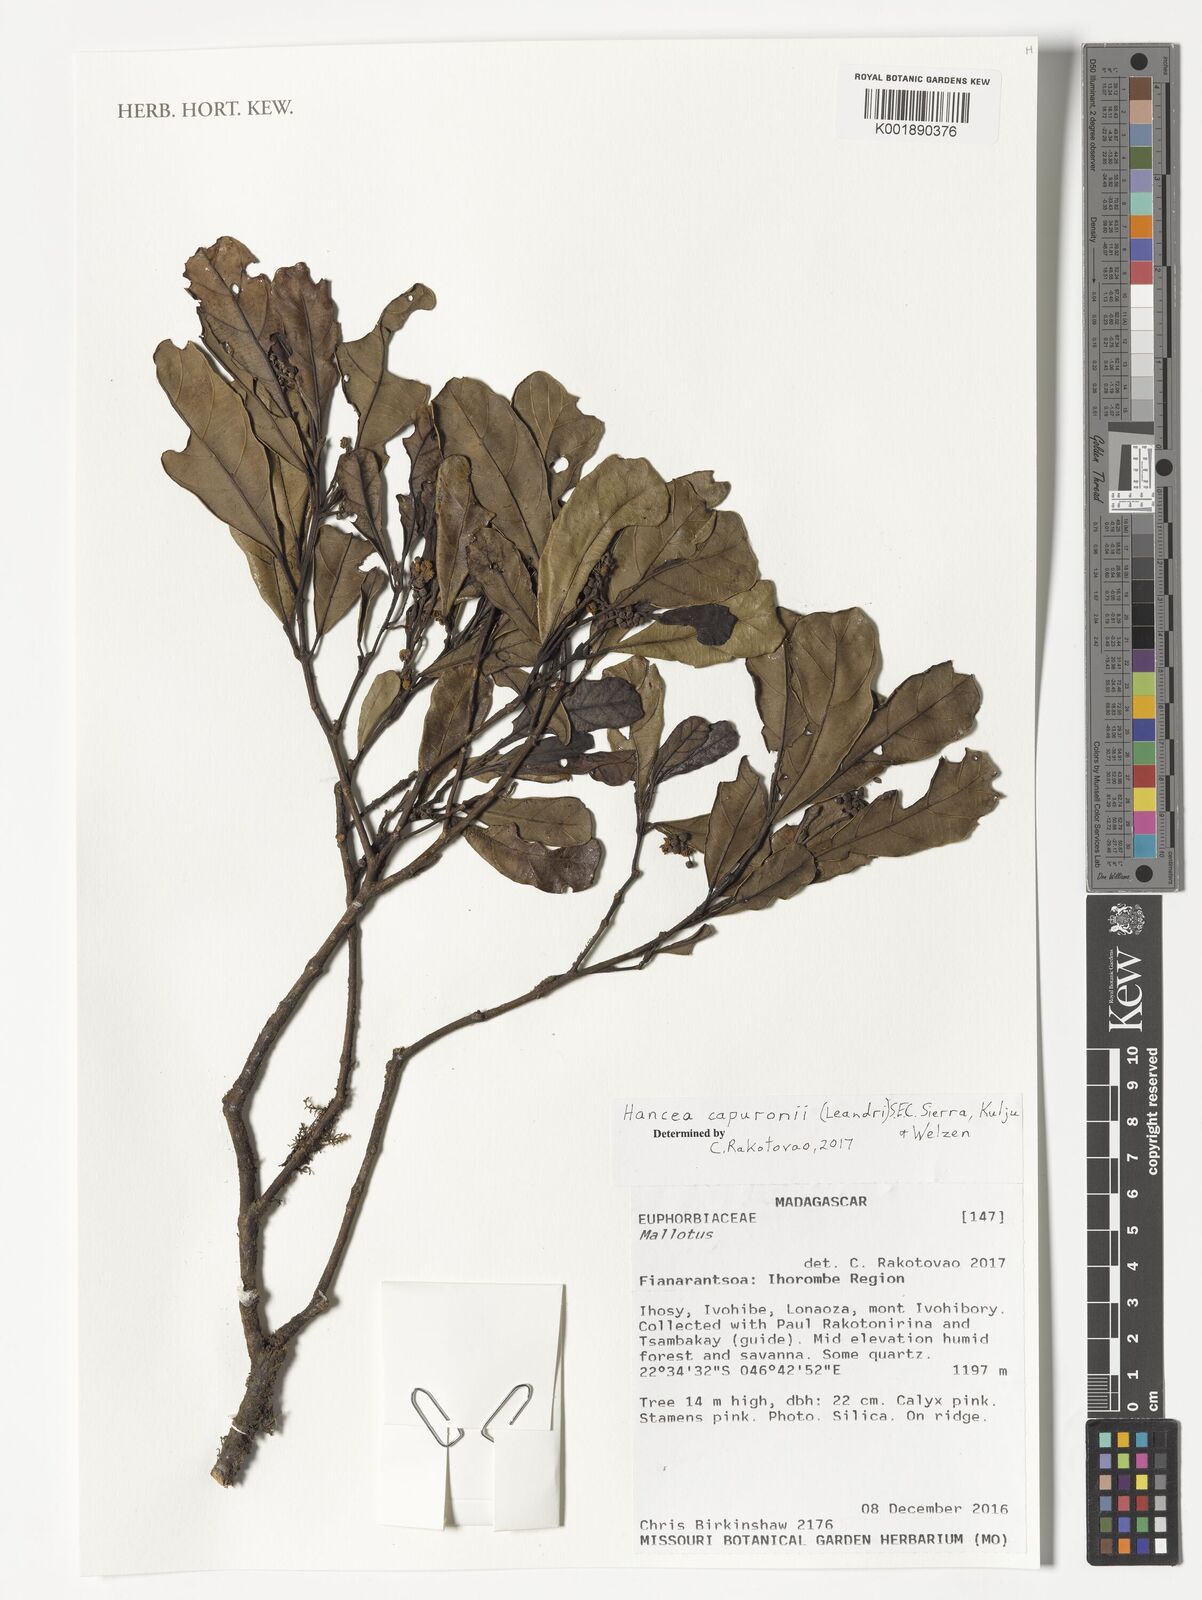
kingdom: Plantae
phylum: Tracheophyta
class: Magnoliopsida
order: Malpighiales
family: Euphorbiaceae
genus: Hancea
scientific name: Hancea capuronii
